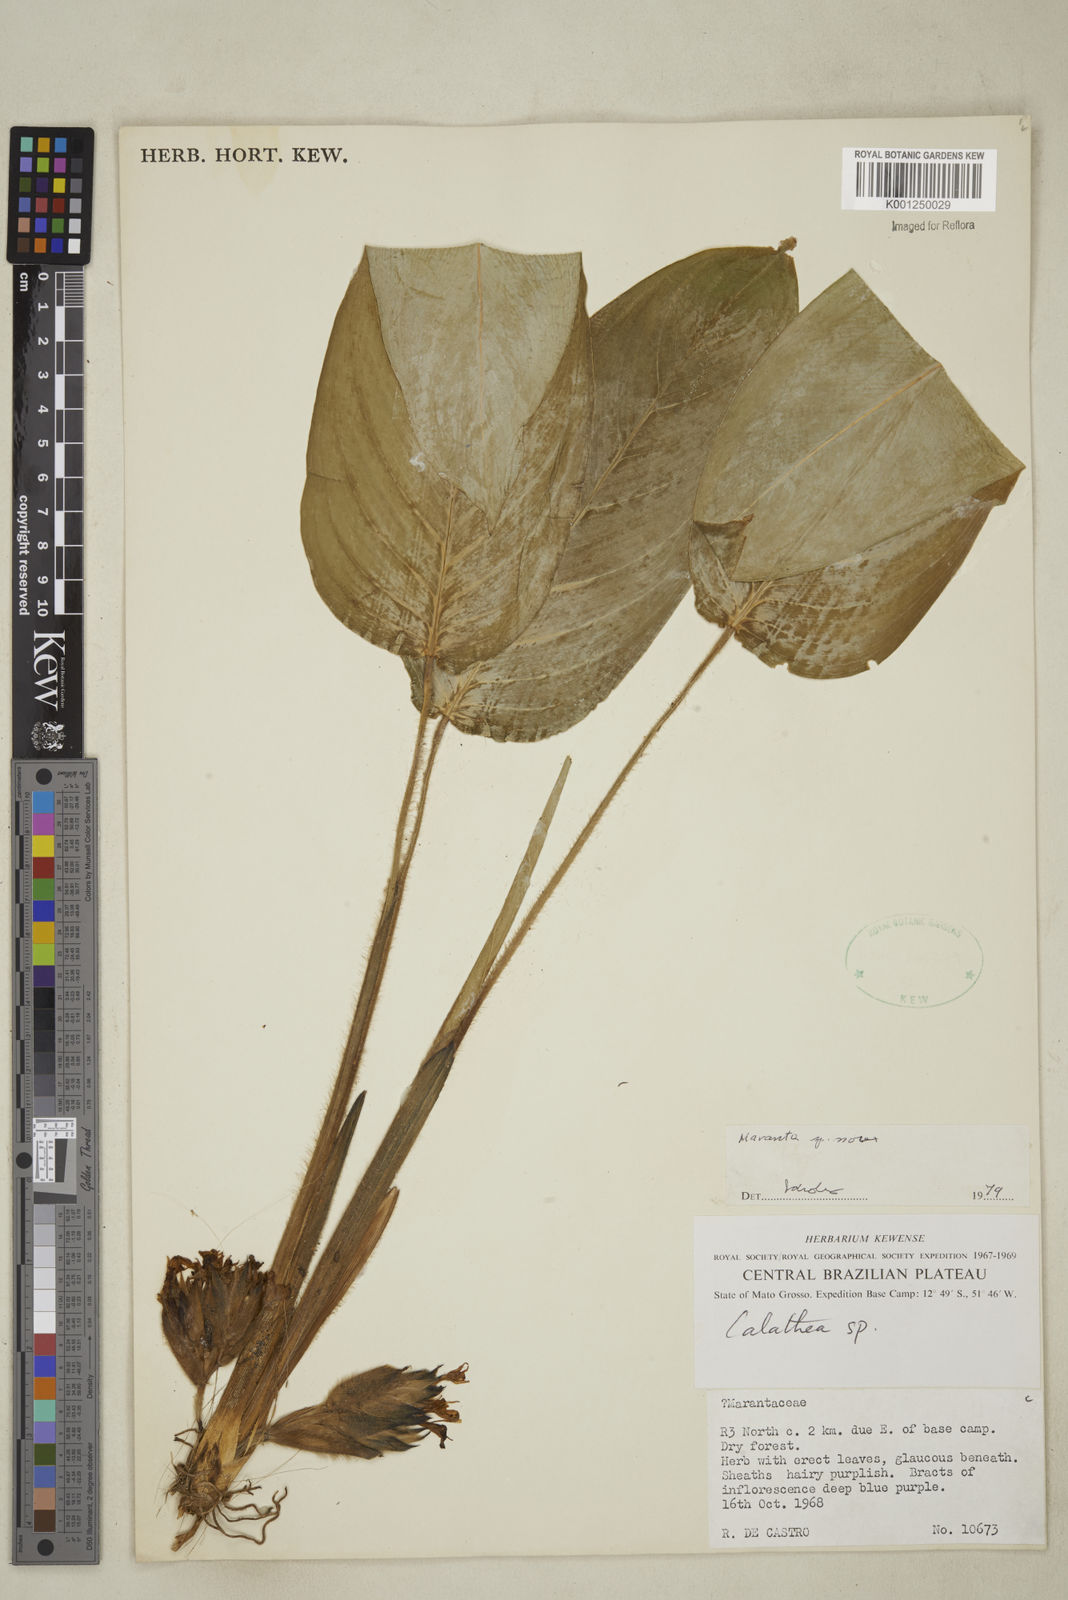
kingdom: Plantae
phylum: Tracheophyta
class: Liliopsida
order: Zingiberales
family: Marantaceae
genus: Maranta
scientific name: Maranta
